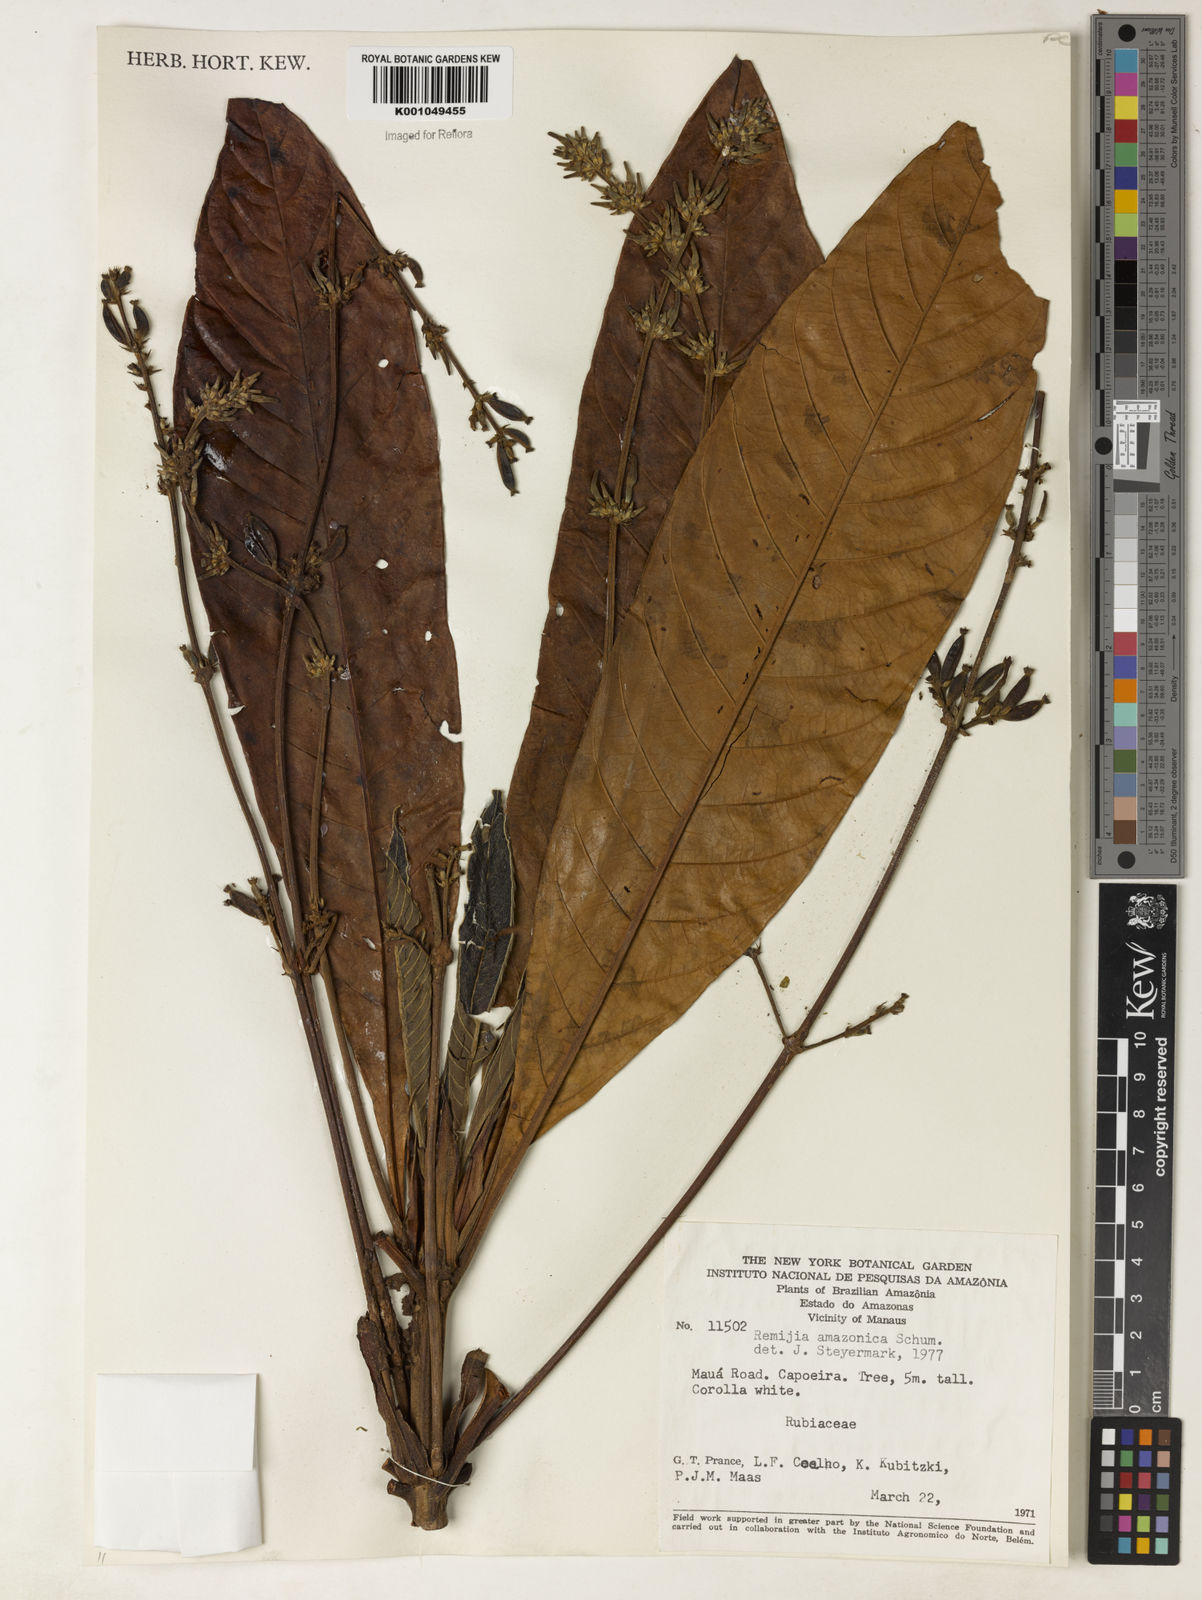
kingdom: Plantae
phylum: Tracheophyta
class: Magnoliopsida
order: Gentianales
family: Rubiaceae
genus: Remijia
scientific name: Remijia amazonica
